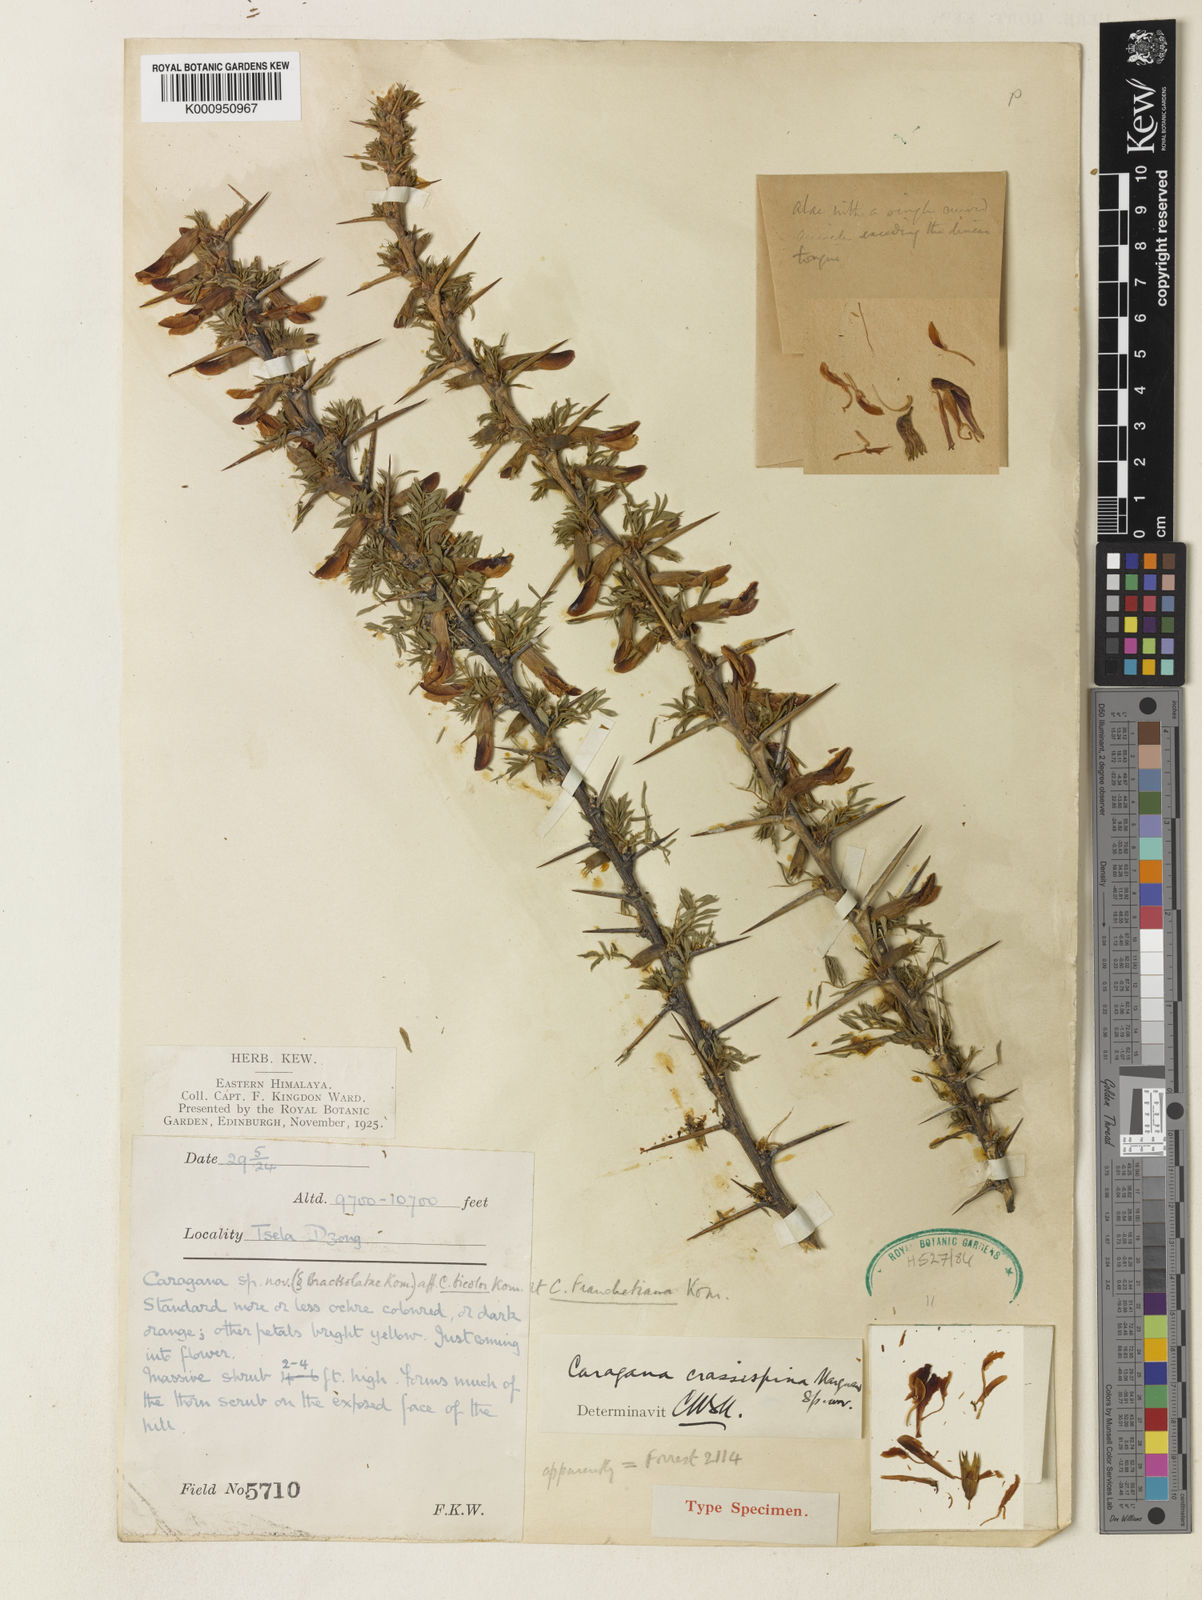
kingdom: Plantae
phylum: Tracheophyta
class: Magnoliopsida
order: Fabales
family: Fabaceae
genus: Caragana
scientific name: Caragana franchetiana
